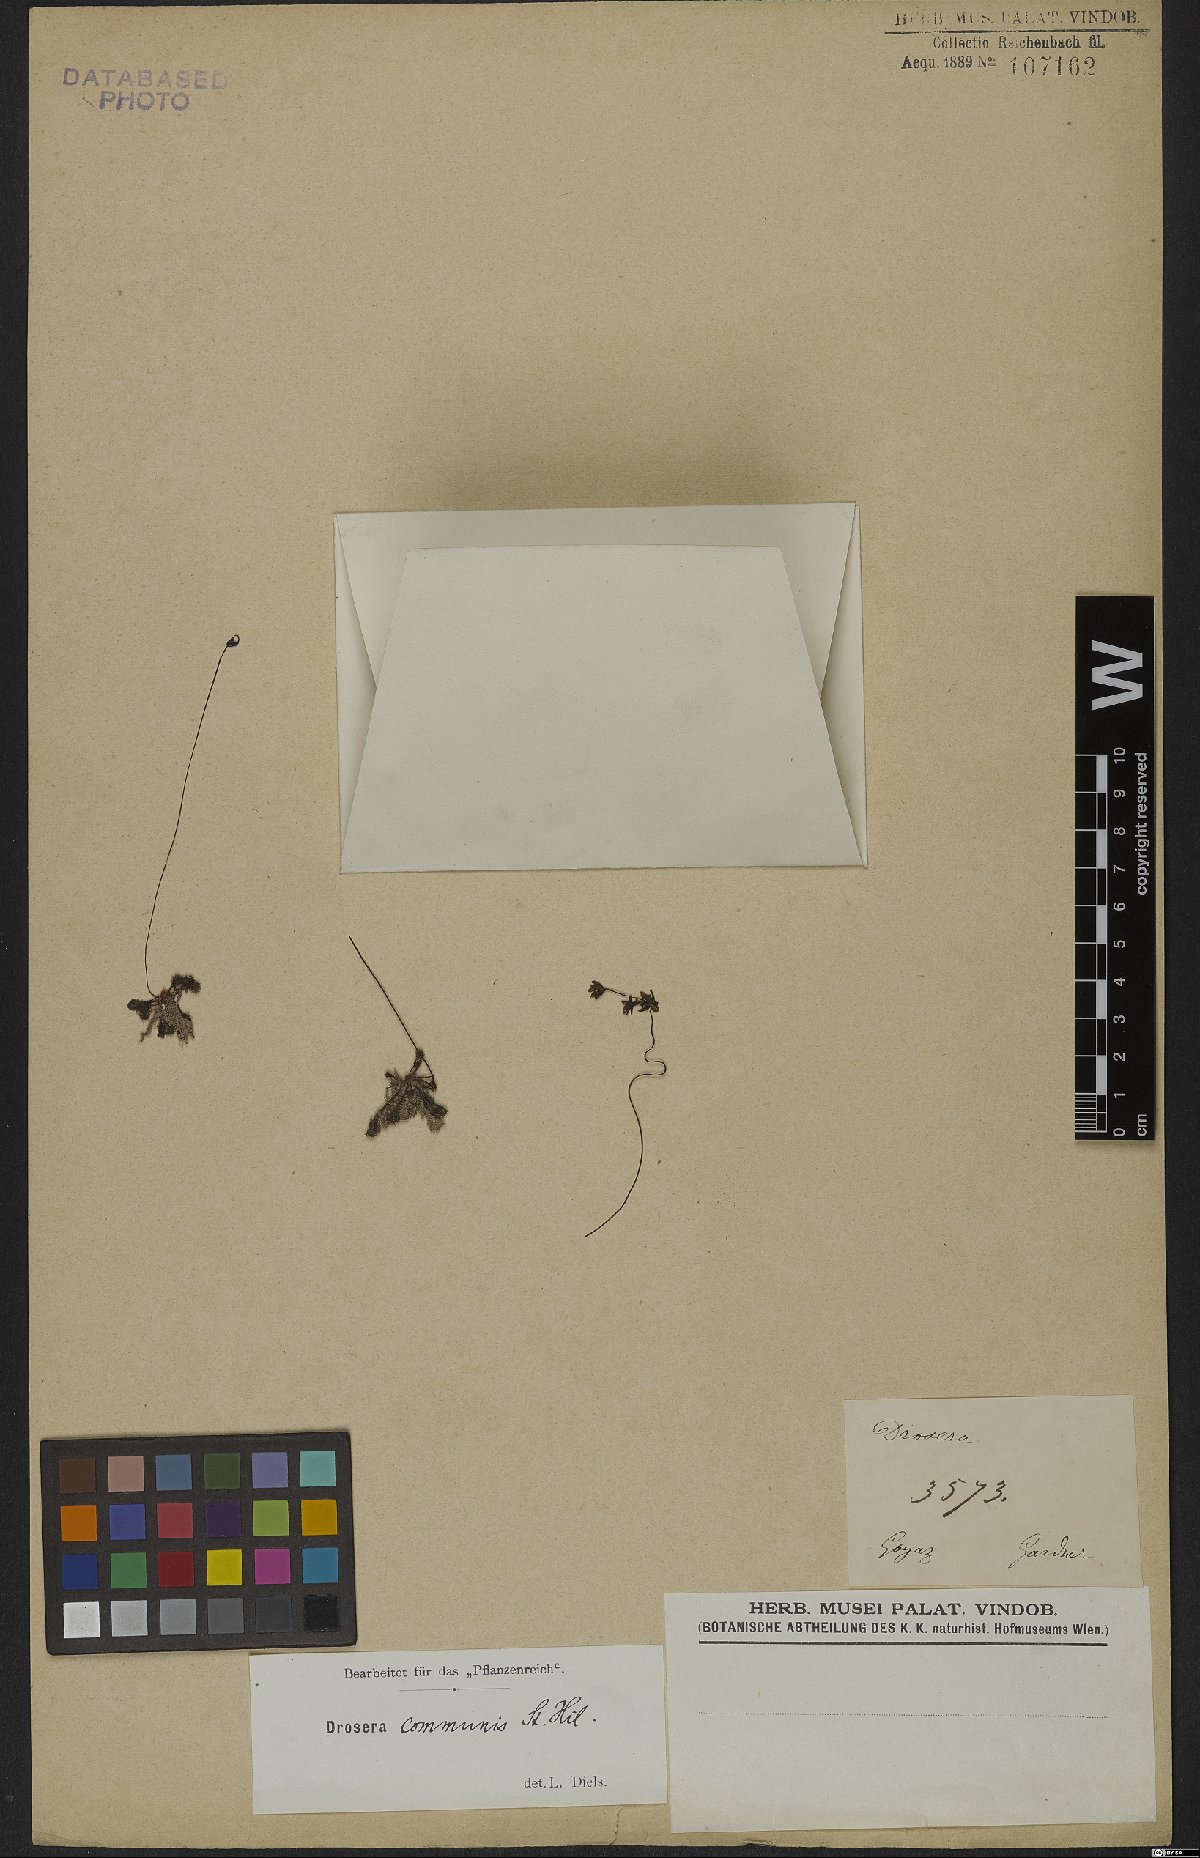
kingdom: Plantae
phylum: Tracheophyta
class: Magnoliopsida
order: Caryophyllales
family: Droseraceae
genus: Drosera
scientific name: Drosera communis
